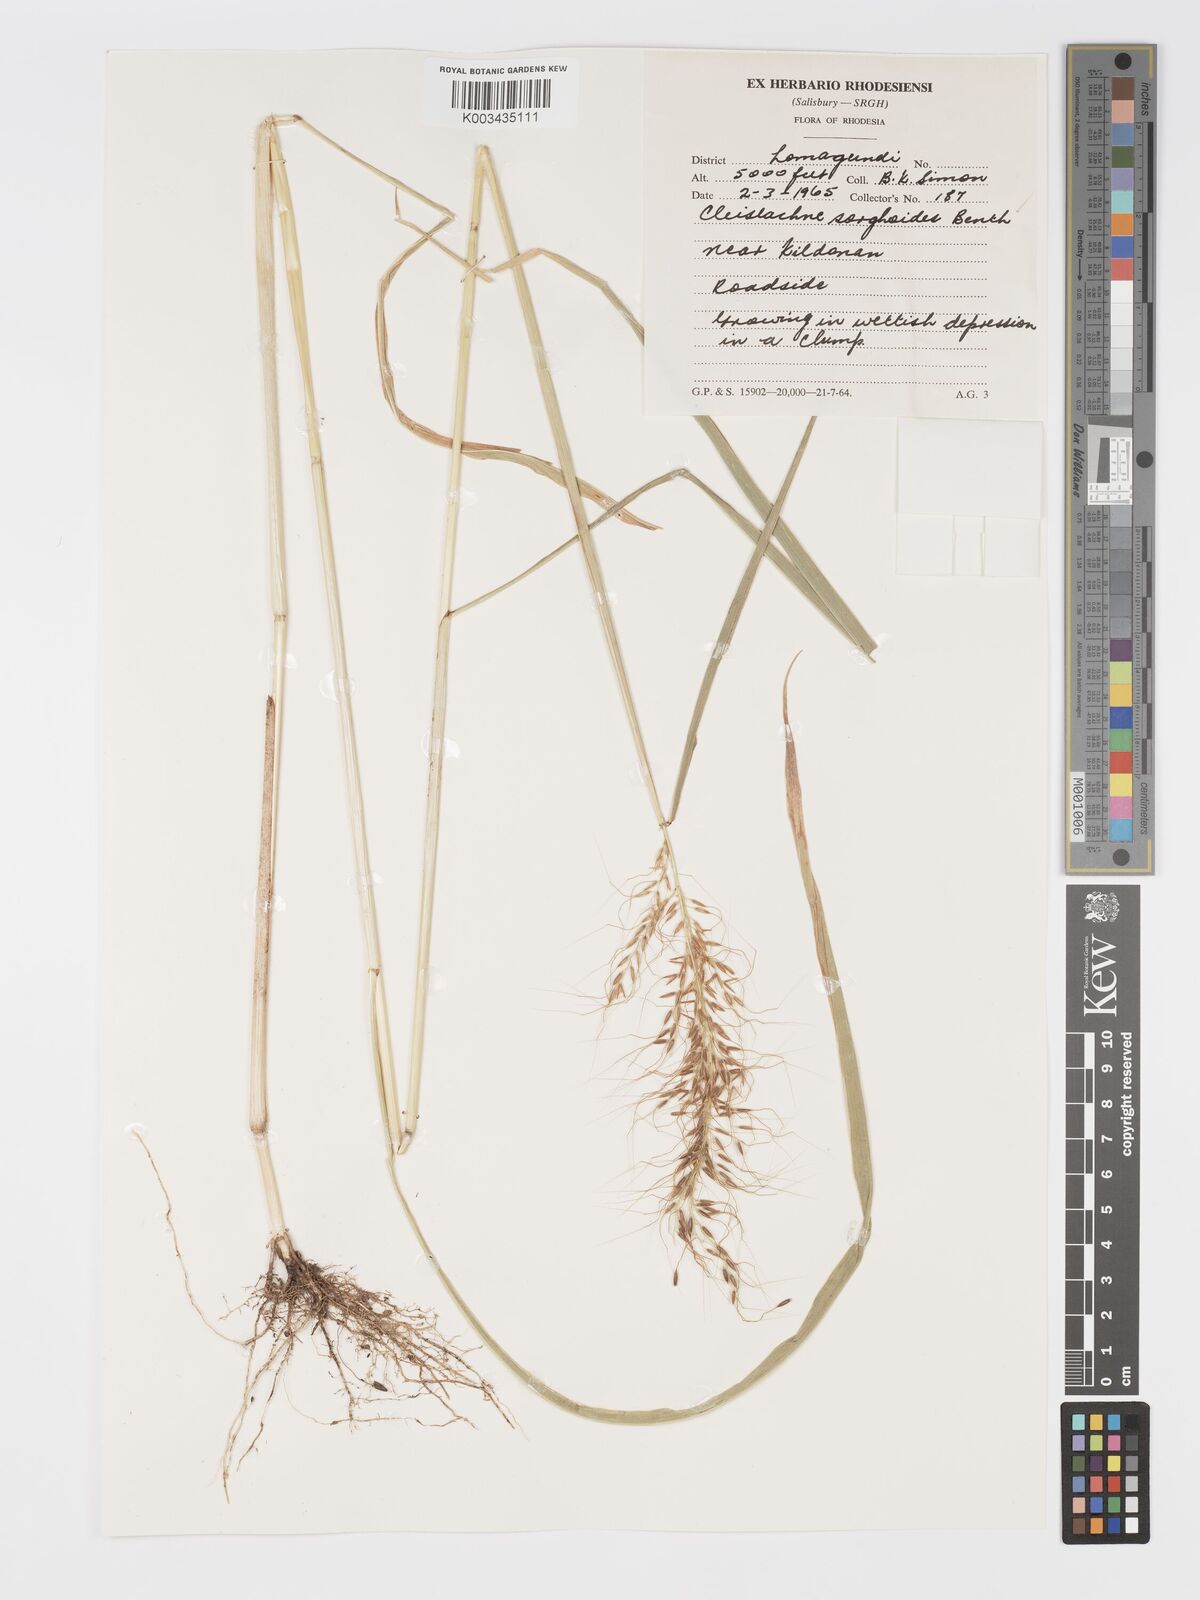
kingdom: Plantae
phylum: Tracheophyta
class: Liliopsida
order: Poales
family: Poaceae
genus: Cleistachne
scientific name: Cleistachne sorghoides
